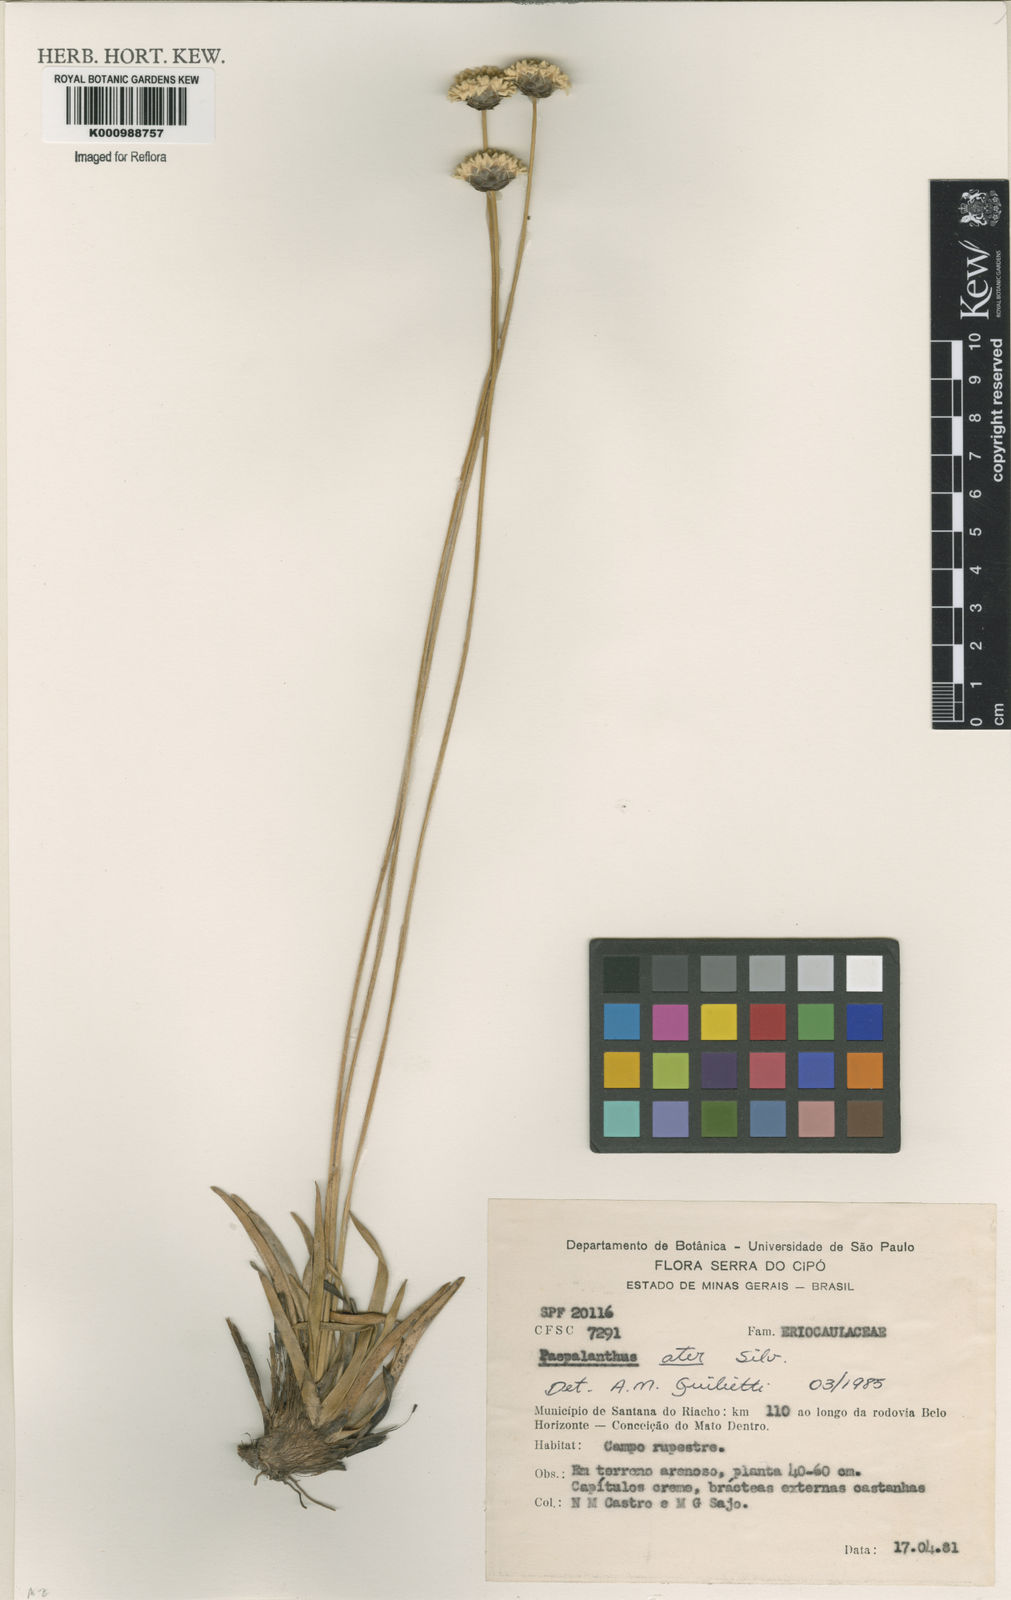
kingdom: Plantae
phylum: Tracheophyta
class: Liliopsida
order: Poales
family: Eriocaulaceae
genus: Paepalanthus
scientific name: Paepalanthus ater
